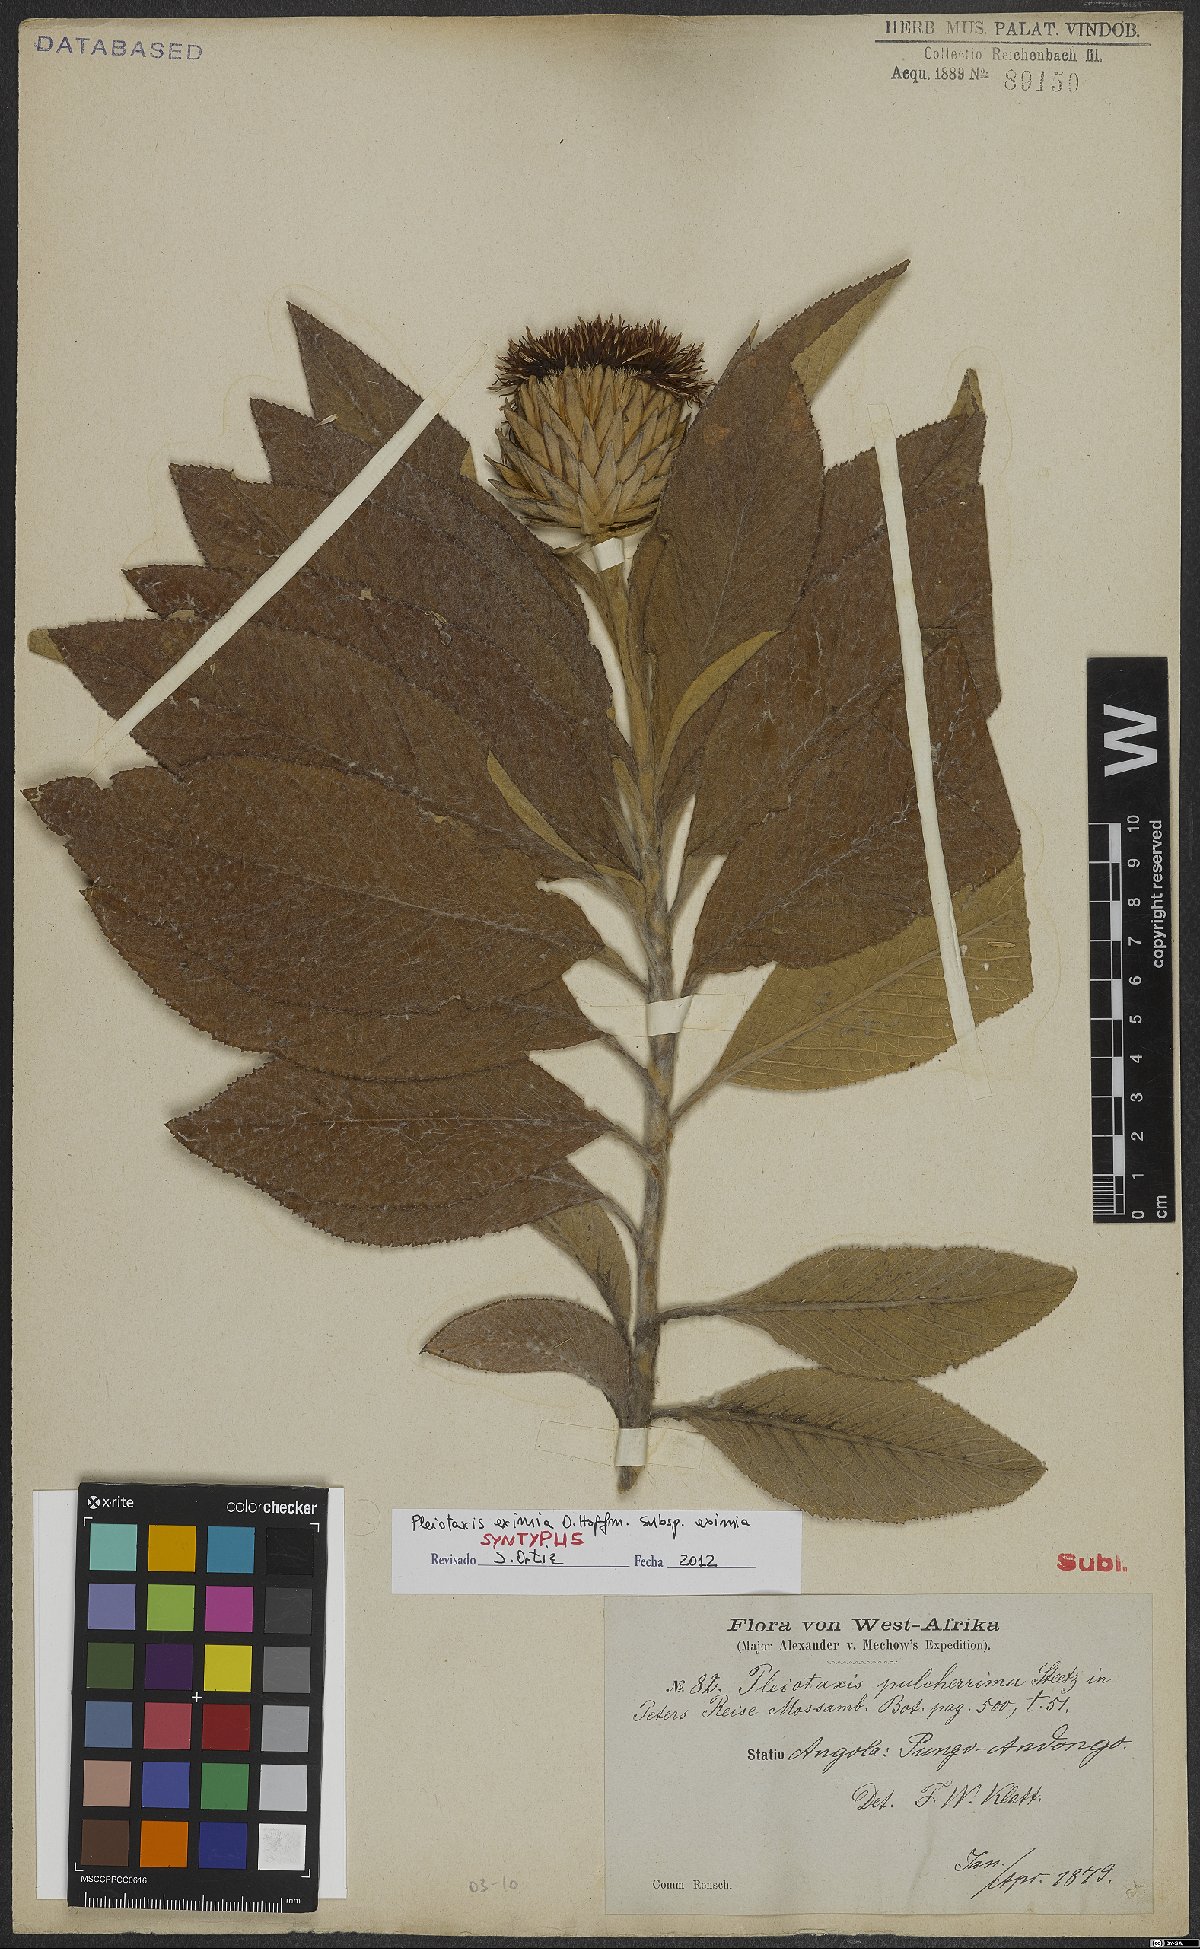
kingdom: Plantae
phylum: Tracheophyta
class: Magnoliopsida
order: Asterales
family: Asteraceae
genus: Pleiotaxis
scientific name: Pleiotaxis eximia
